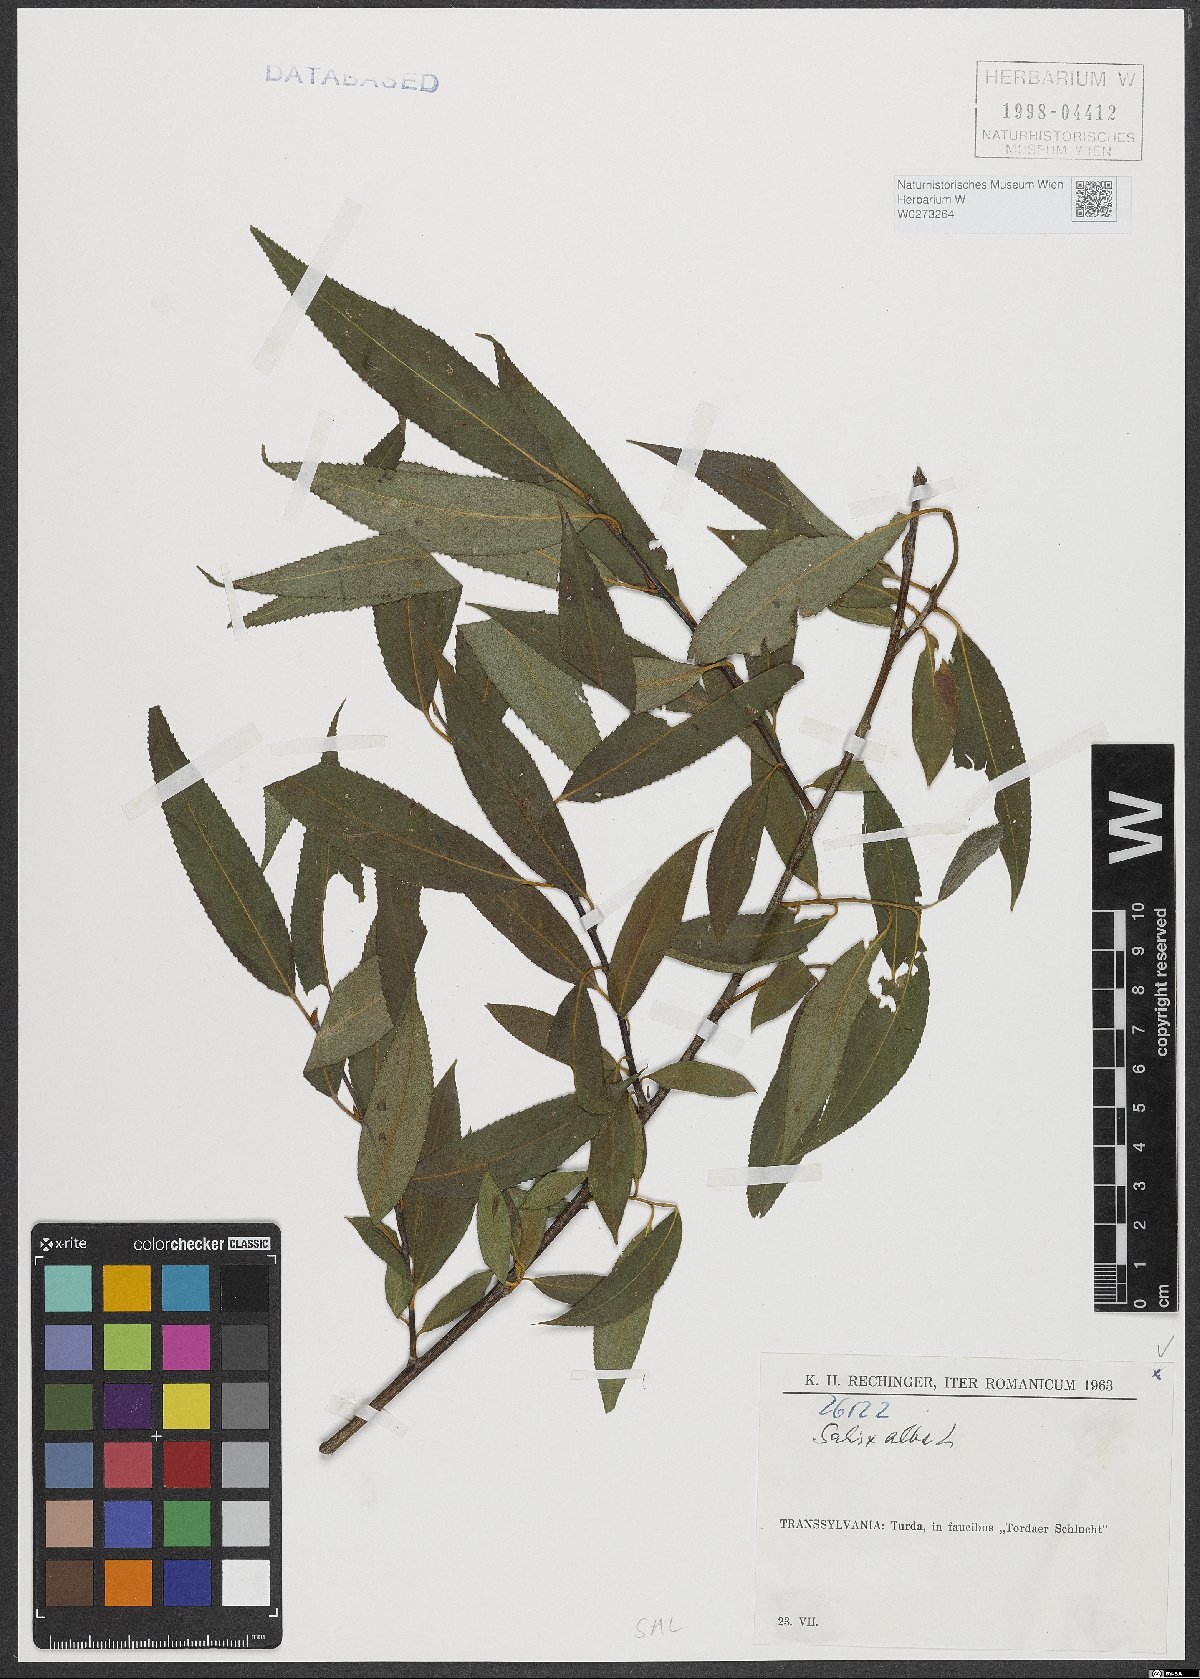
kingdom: Plantae
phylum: Tracheophyta
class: Magnoliopsida
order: Malpighiales
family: Salicaceae
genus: Salix
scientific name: Salix alba
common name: White willow
